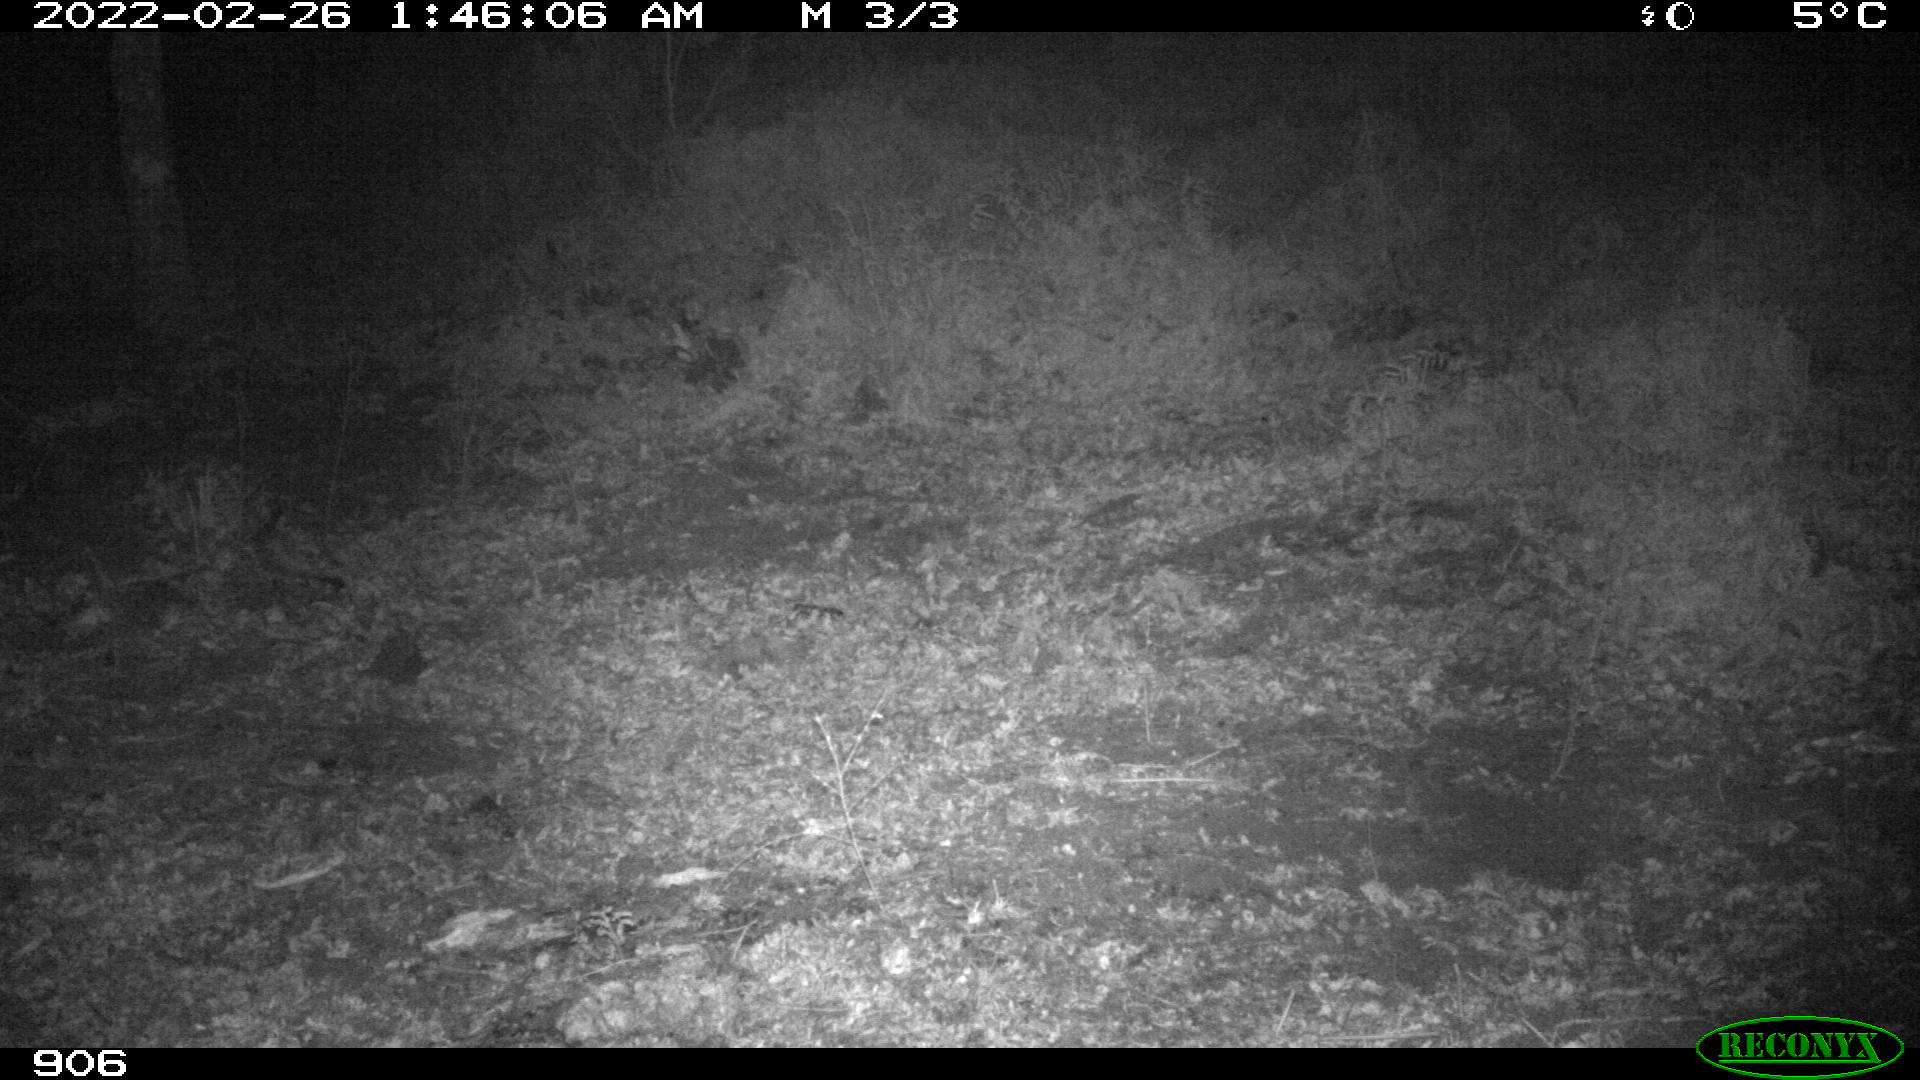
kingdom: Animalia
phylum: Chordata
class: Mammalia
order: Artiodactyla
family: Suidae
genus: Sus
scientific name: Sus scrofa
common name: Wild boar
